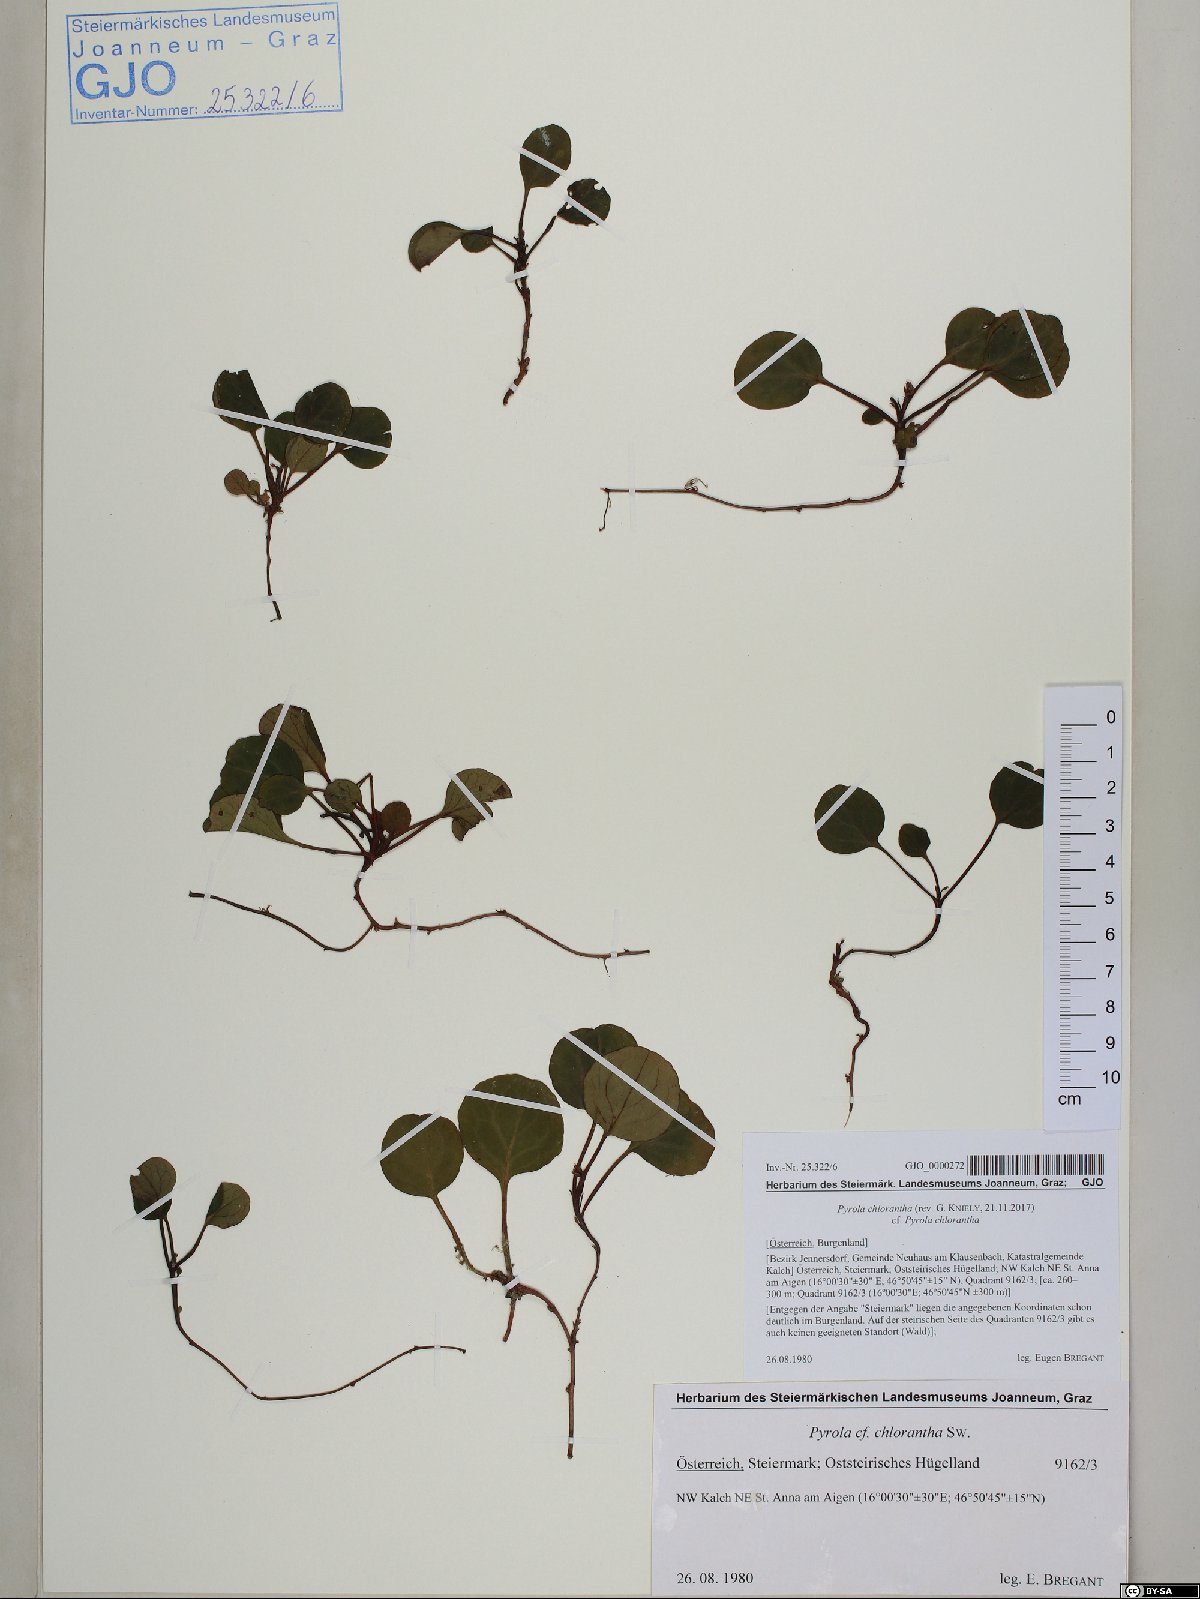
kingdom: Plantae
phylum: Tracheophyta
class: Magnoliopsida
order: Ericales
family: Ericaceae
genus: Pyrola
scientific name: Pyrola chlorantha
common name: Green wintergreen
